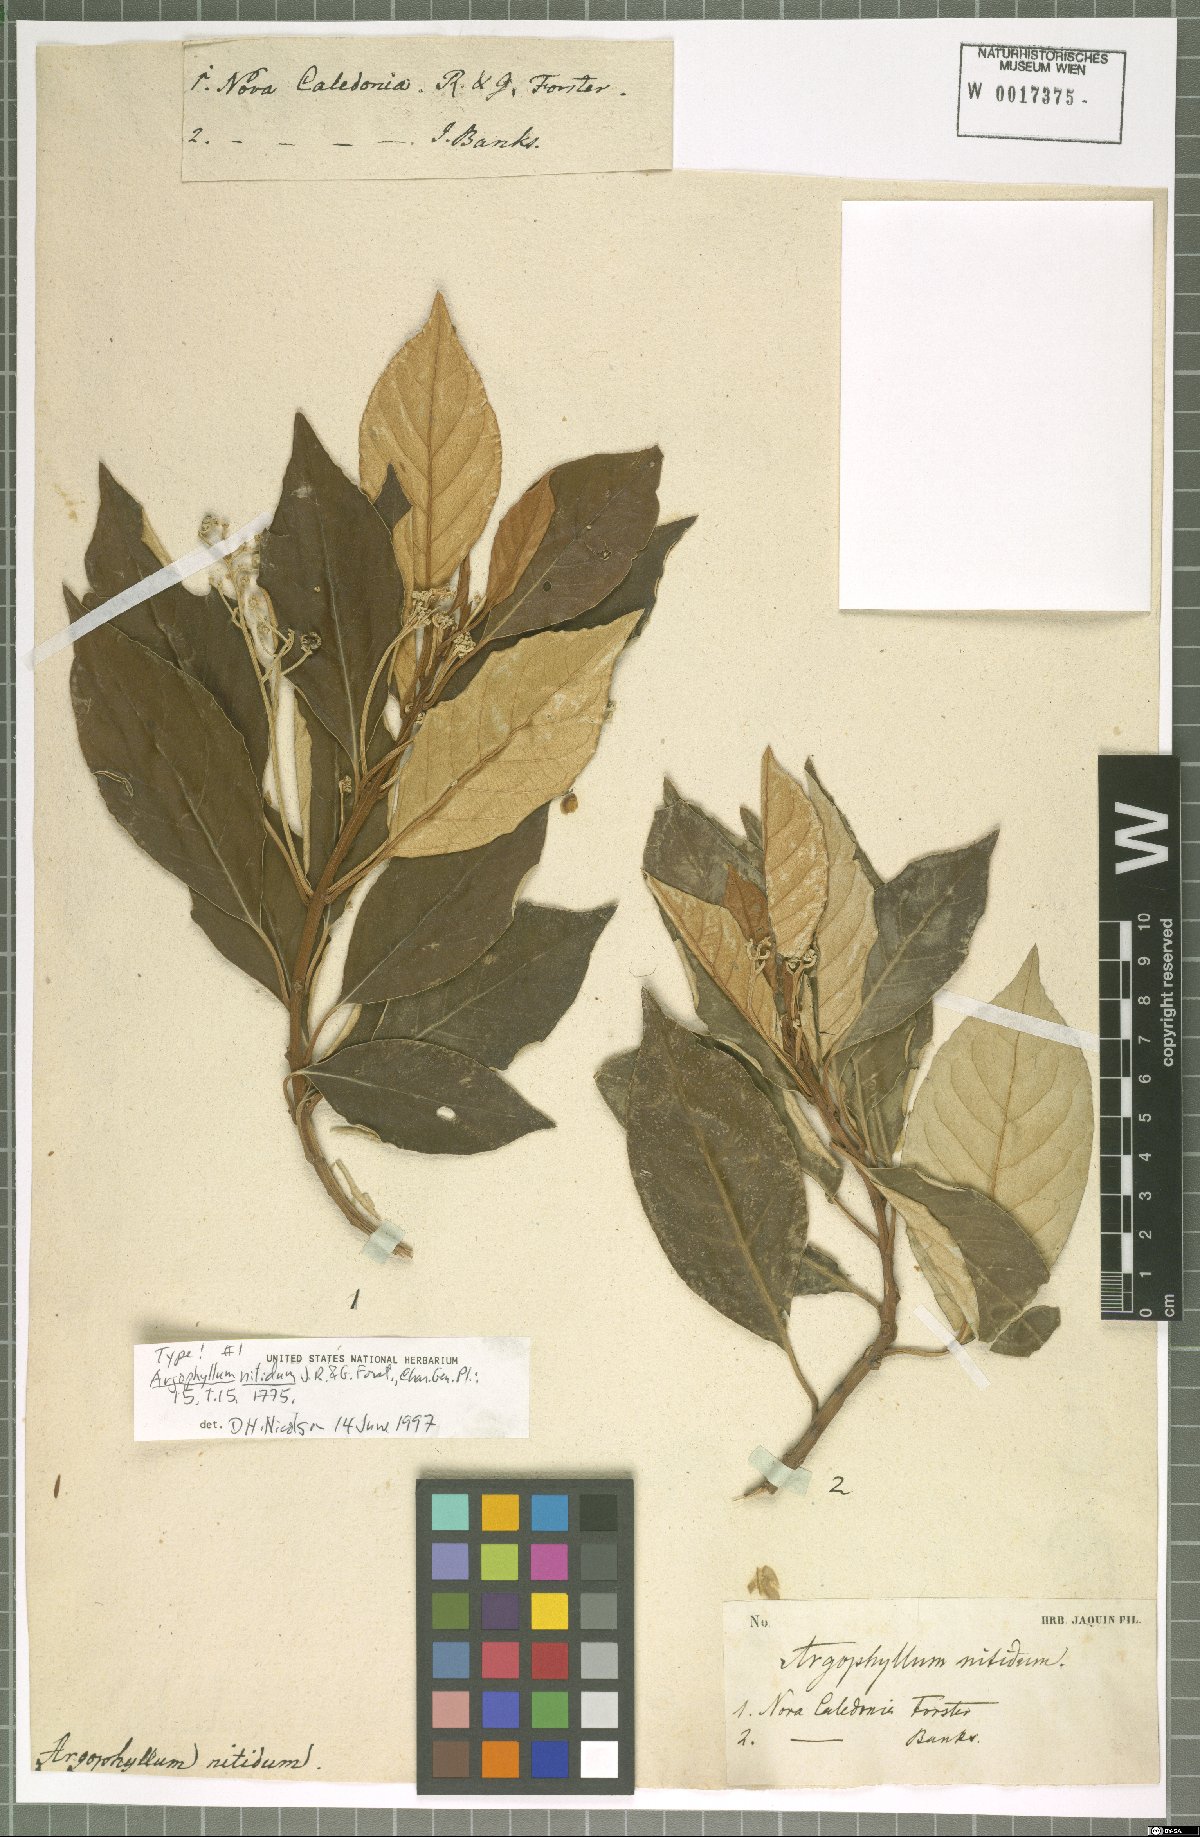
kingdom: Plantae
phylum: Tracheophyta
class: Magnoliopsida
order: Asterales
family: Argophyllaceae
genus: Argophyllum
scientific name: Argophyllum nitidum
